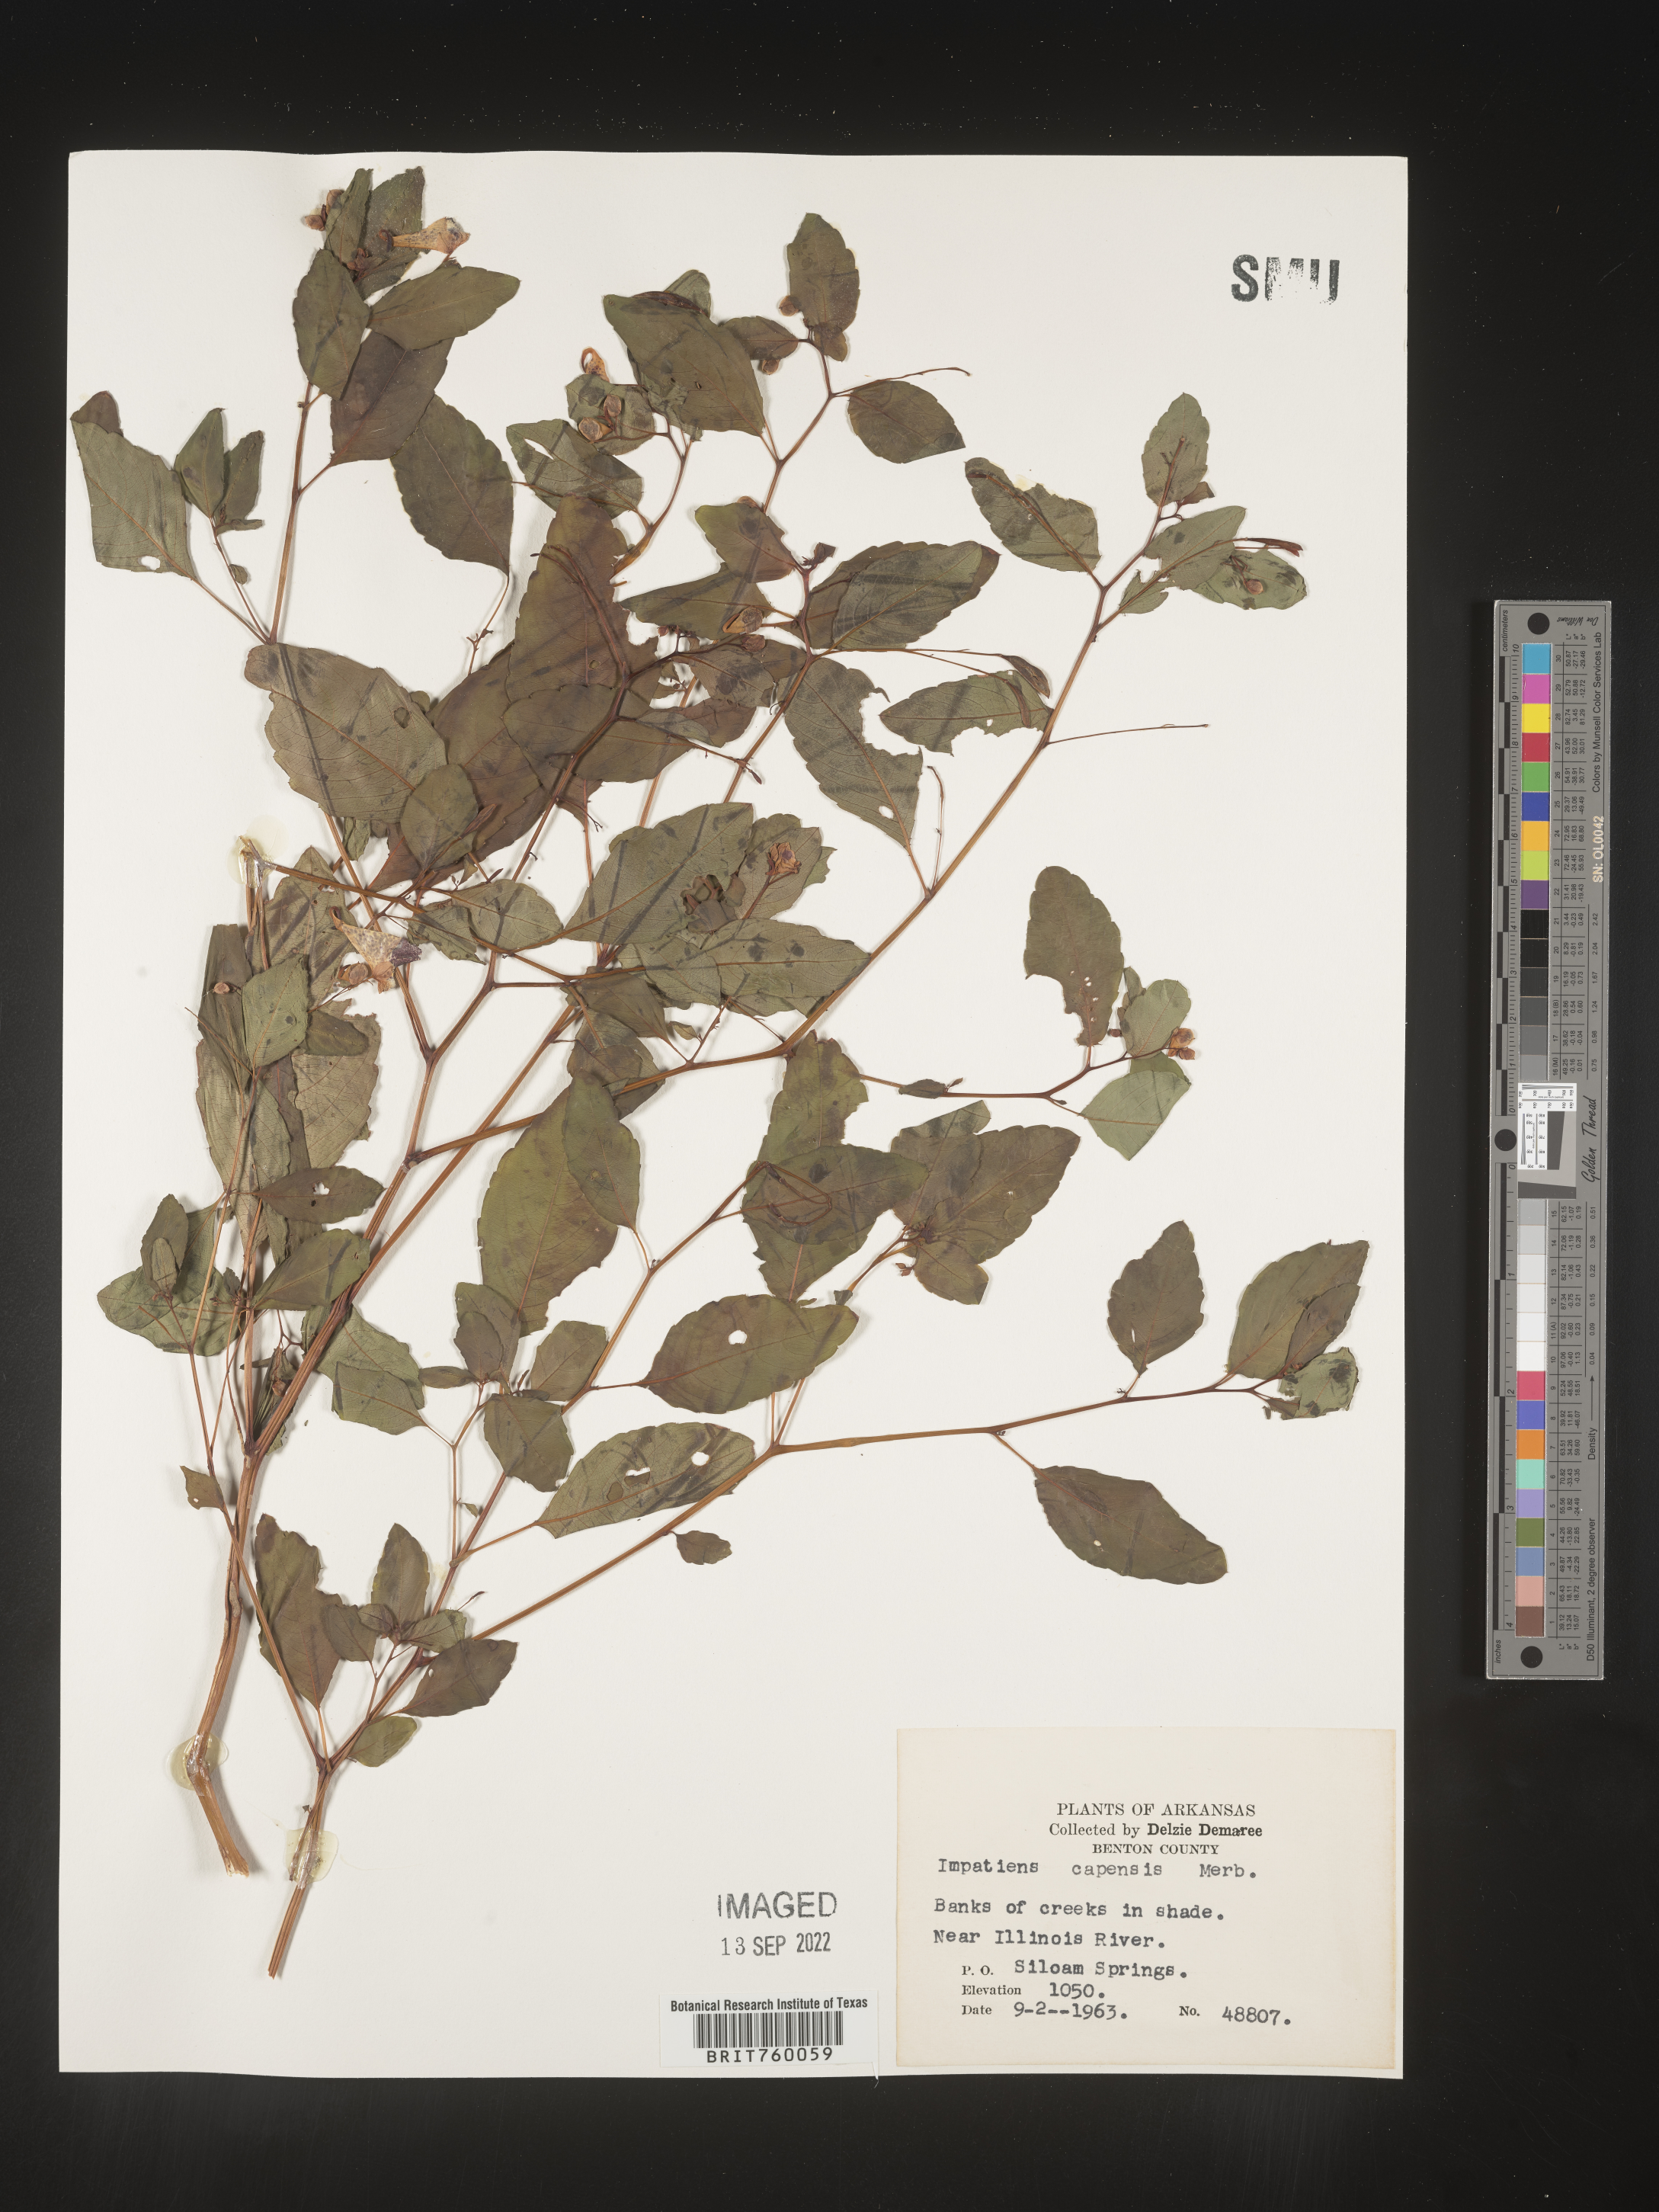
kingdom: Plantae
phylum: Tracheophyta
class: Magnoliopsida
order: Ericales
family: Balsaminaceae
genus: Impatiens
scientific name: Impatiens capensis
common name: Orange balsam
